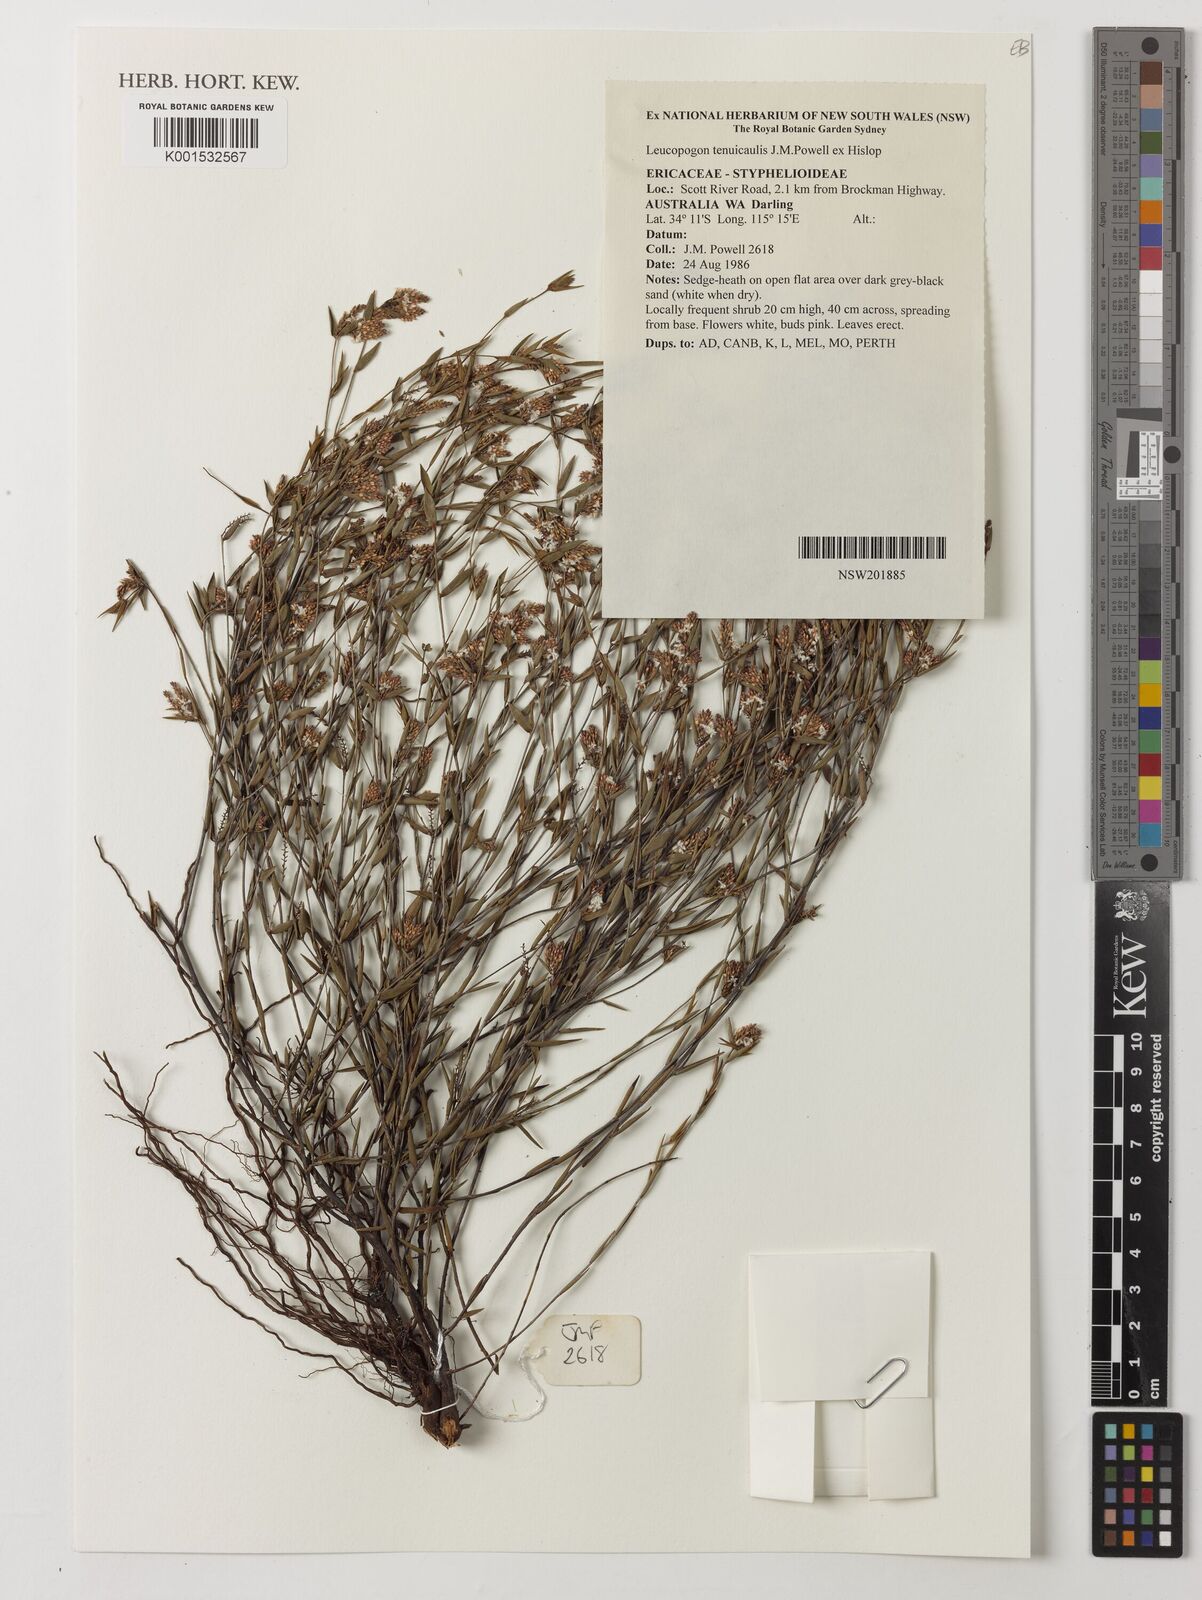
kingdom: Plantae
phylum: Tracheophyta
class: Magnoliopsida
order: Ericales
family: Ericaceae
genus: Leucopogon
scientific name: Leucopogon tenuicaulis
